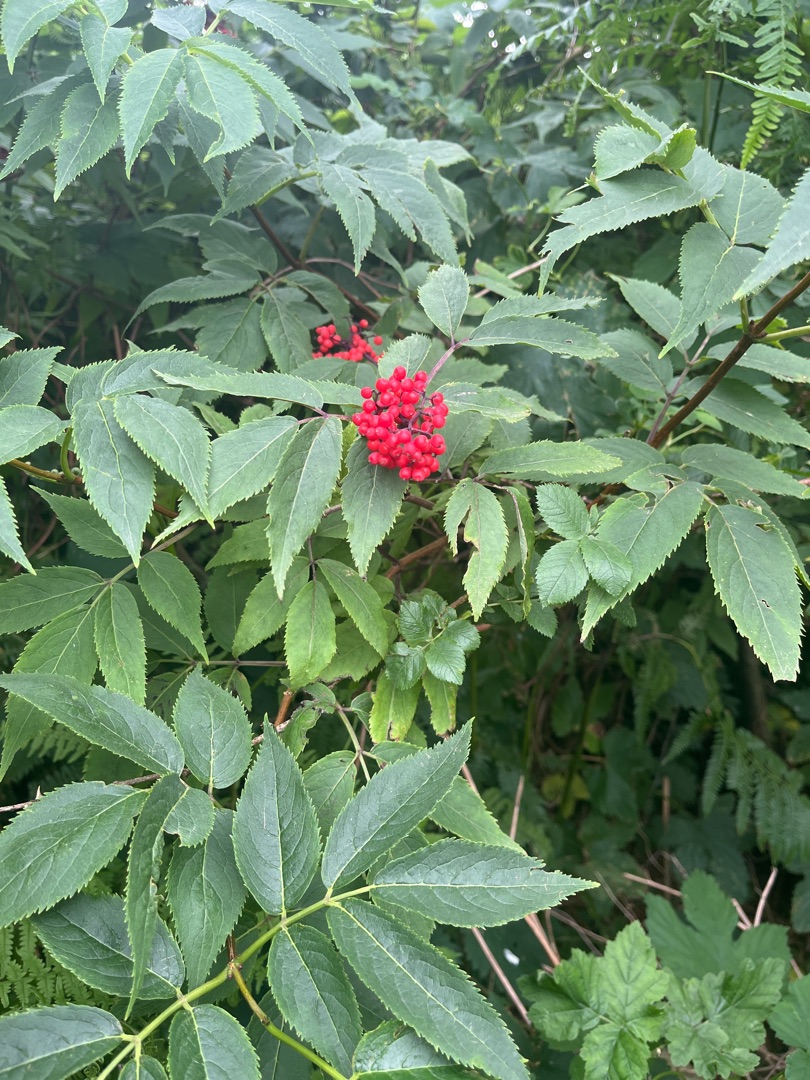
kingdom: Plantae
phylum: Tracheophyta
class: Magnoliopsida
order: Dipsacales
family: Viburnaceae
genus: Sambucus
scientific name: Sambucus racemosa
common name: Drue-hyld
